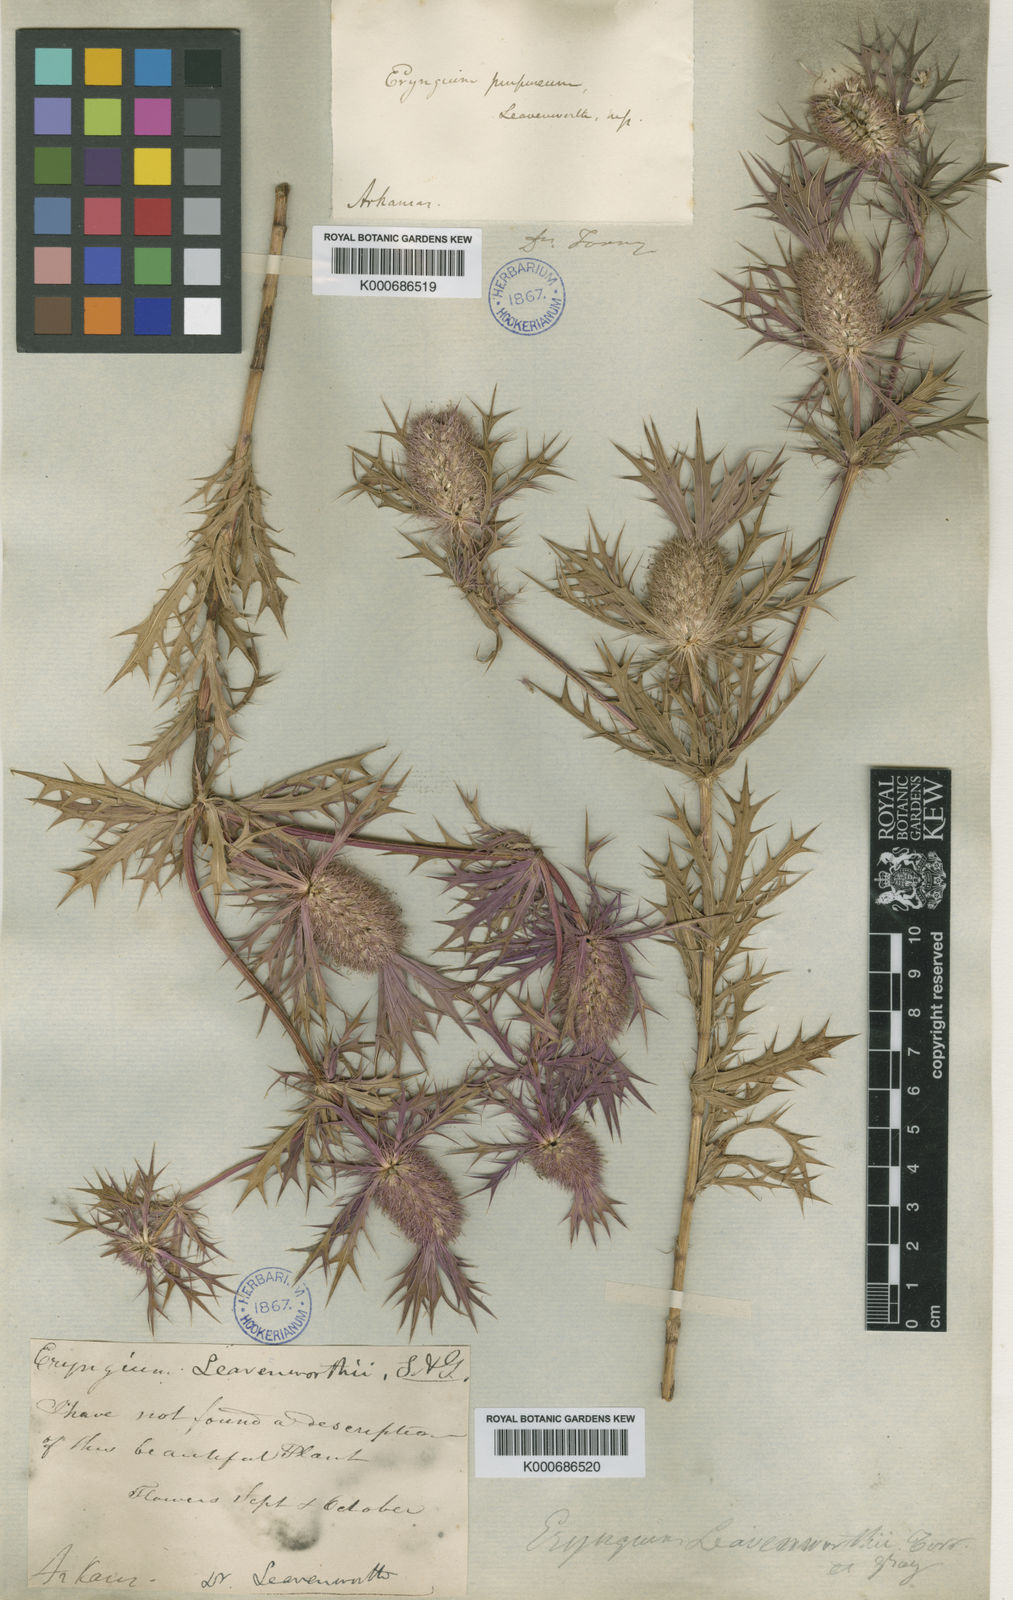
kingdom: Plantae
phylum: Tracheophyta
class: Magnoliopsida
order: Apiales
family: Apiaceae
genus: Eryngium
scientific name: Eryngium leavenworthii
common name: Leavenworth's eryngo
